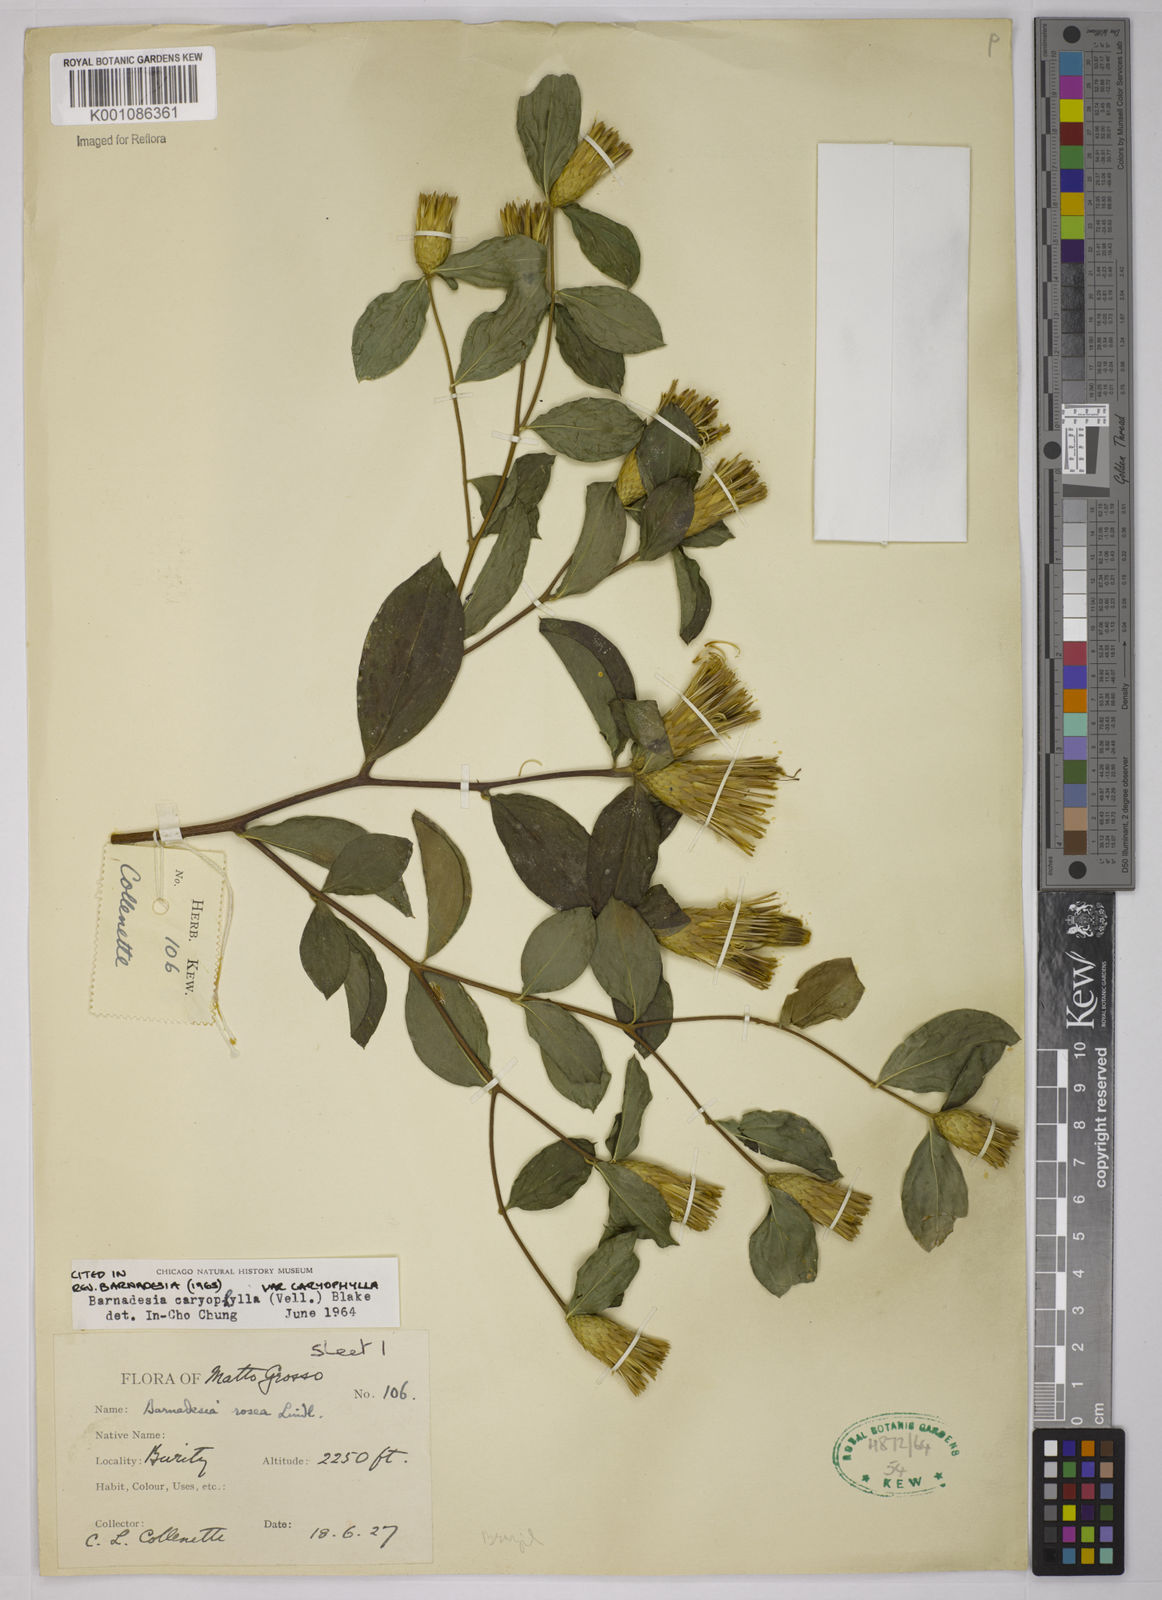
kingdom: Plantae
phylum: Tracheophyta
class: Magnoliopsida
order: Asterales
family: Asteraceae
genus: Barnadesia
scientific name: Barnadesia caryophylla
